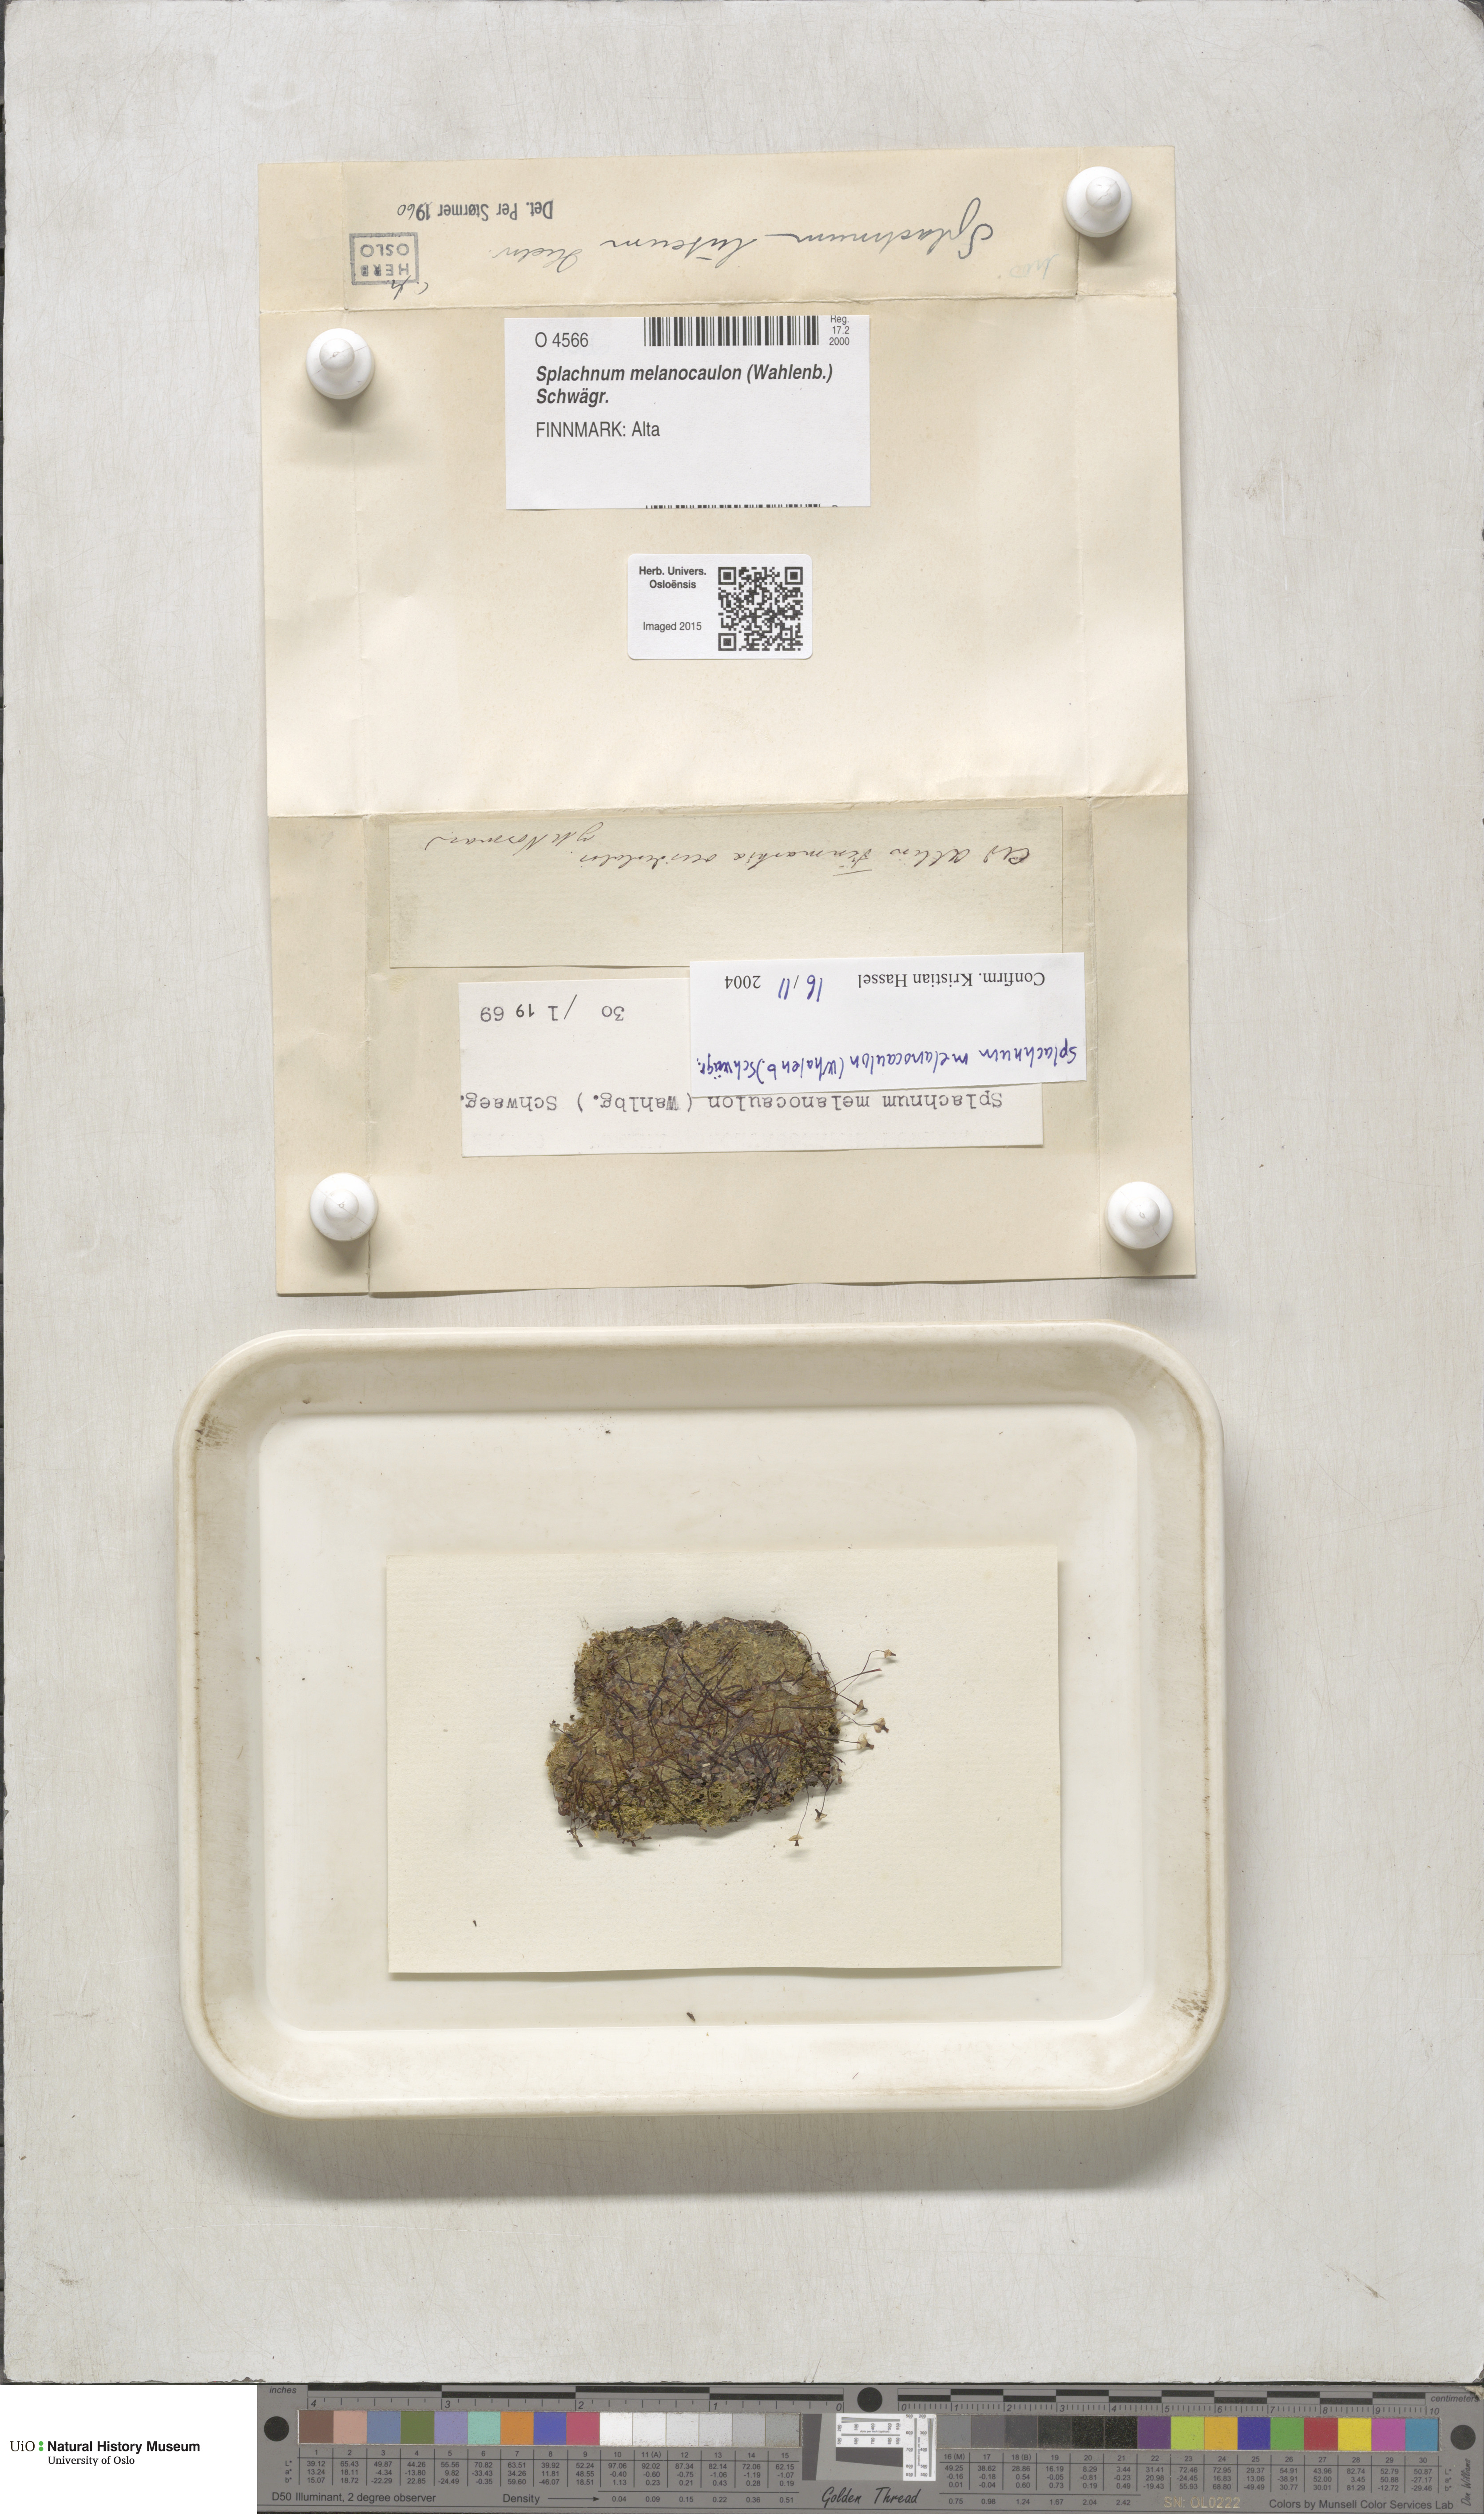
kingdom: Plantae
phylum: Bryophyta
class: Bryopsida
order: Splachnales
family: Splachnaceae
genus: Splachnum
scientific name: Splachnum melanocaulon
